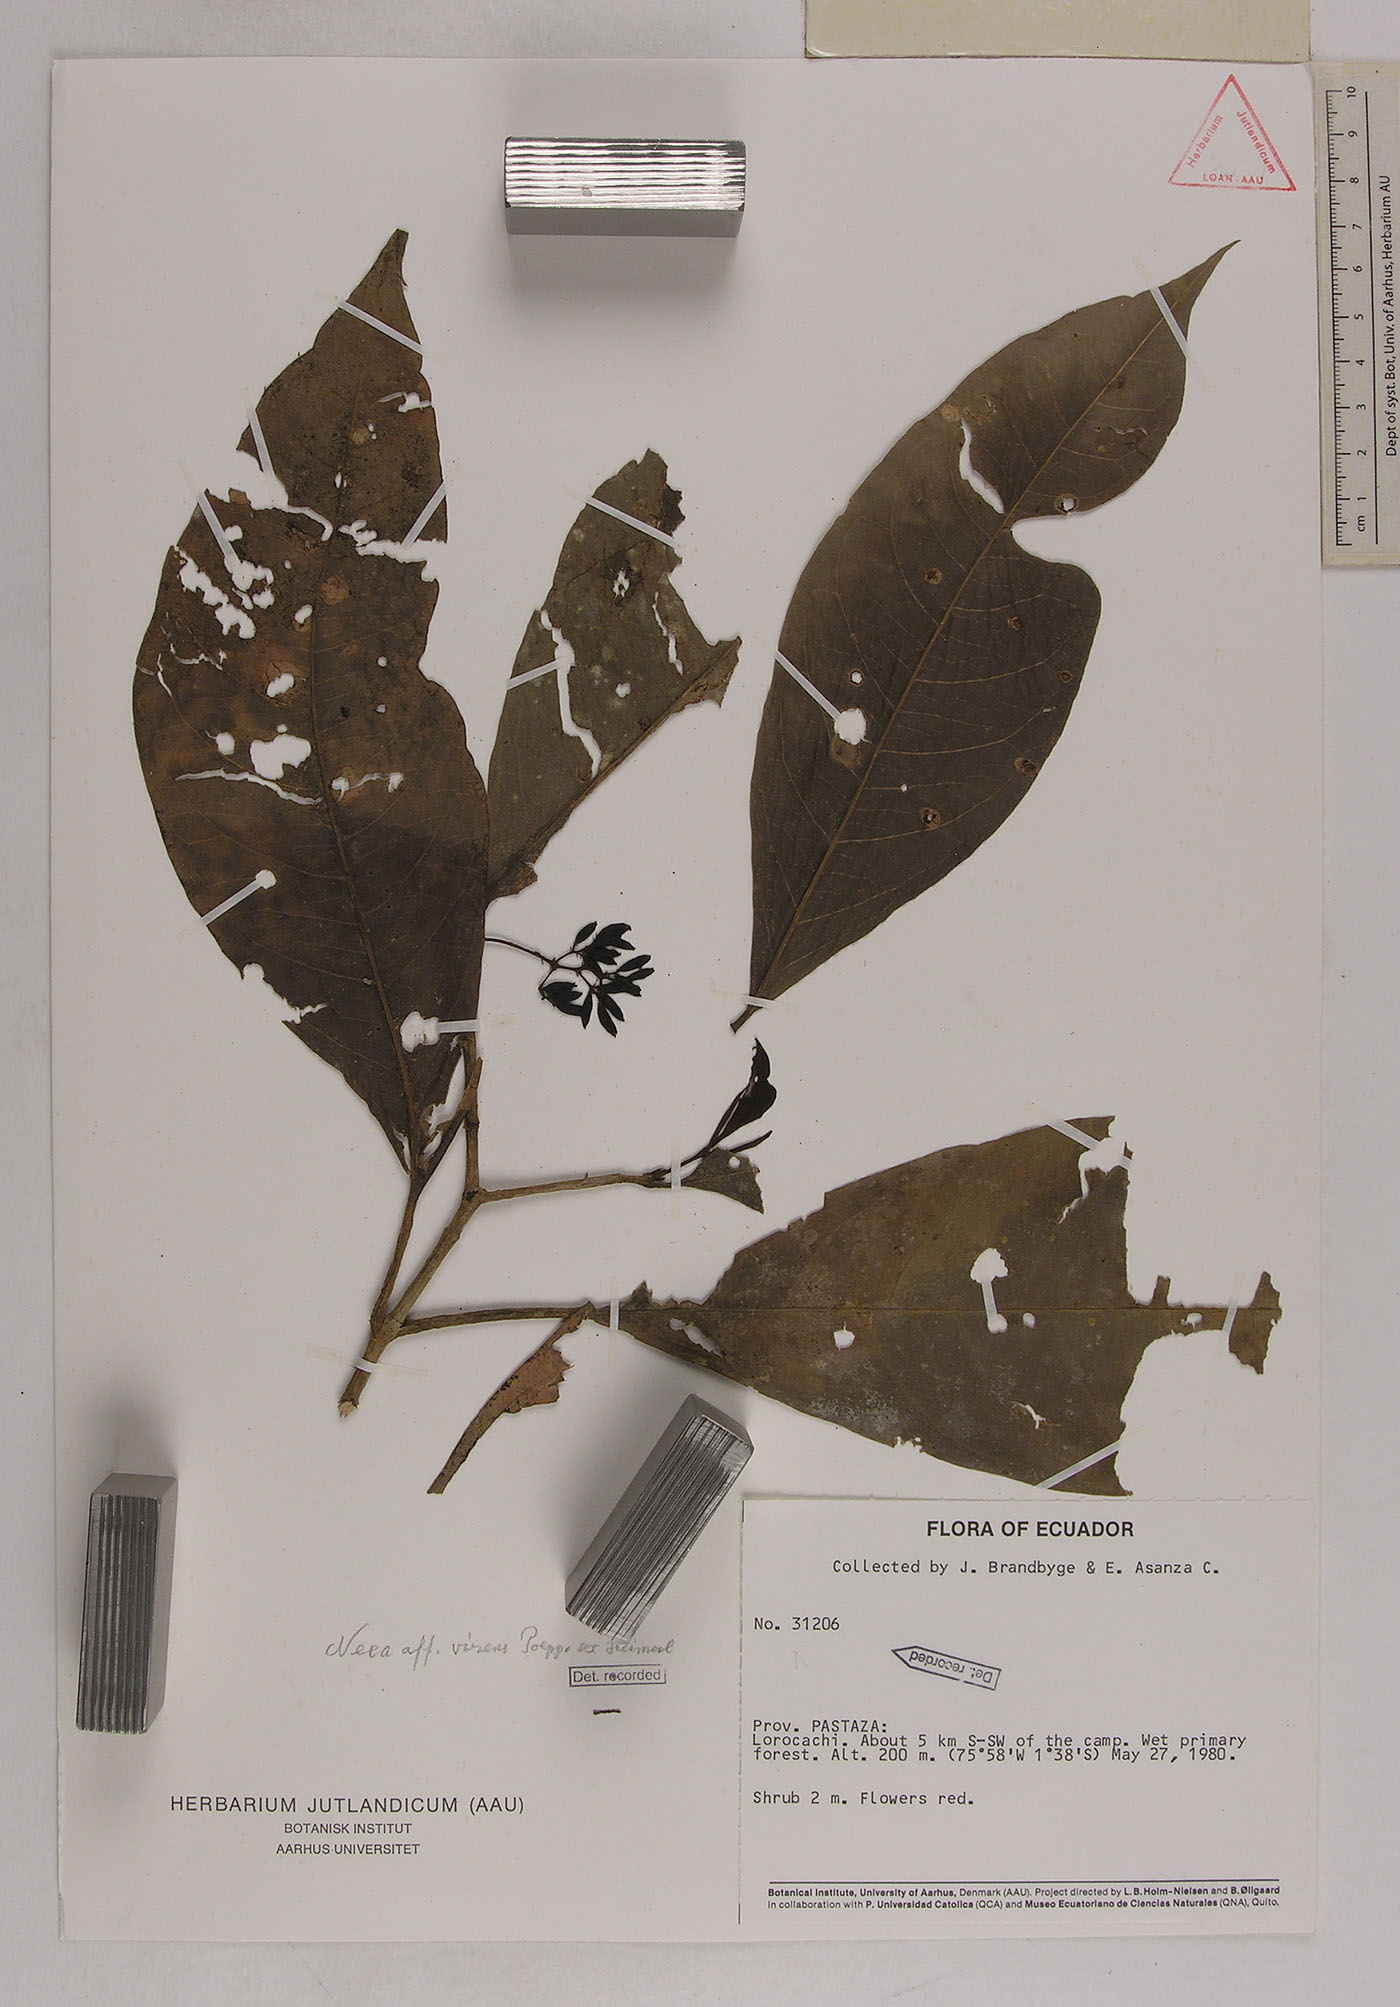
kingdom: Plantae
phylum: Tracheophyta
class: Magnoliopsida
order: Caryophyllales
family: Nyctaginaceae
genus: Neea
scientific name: Neea virens
